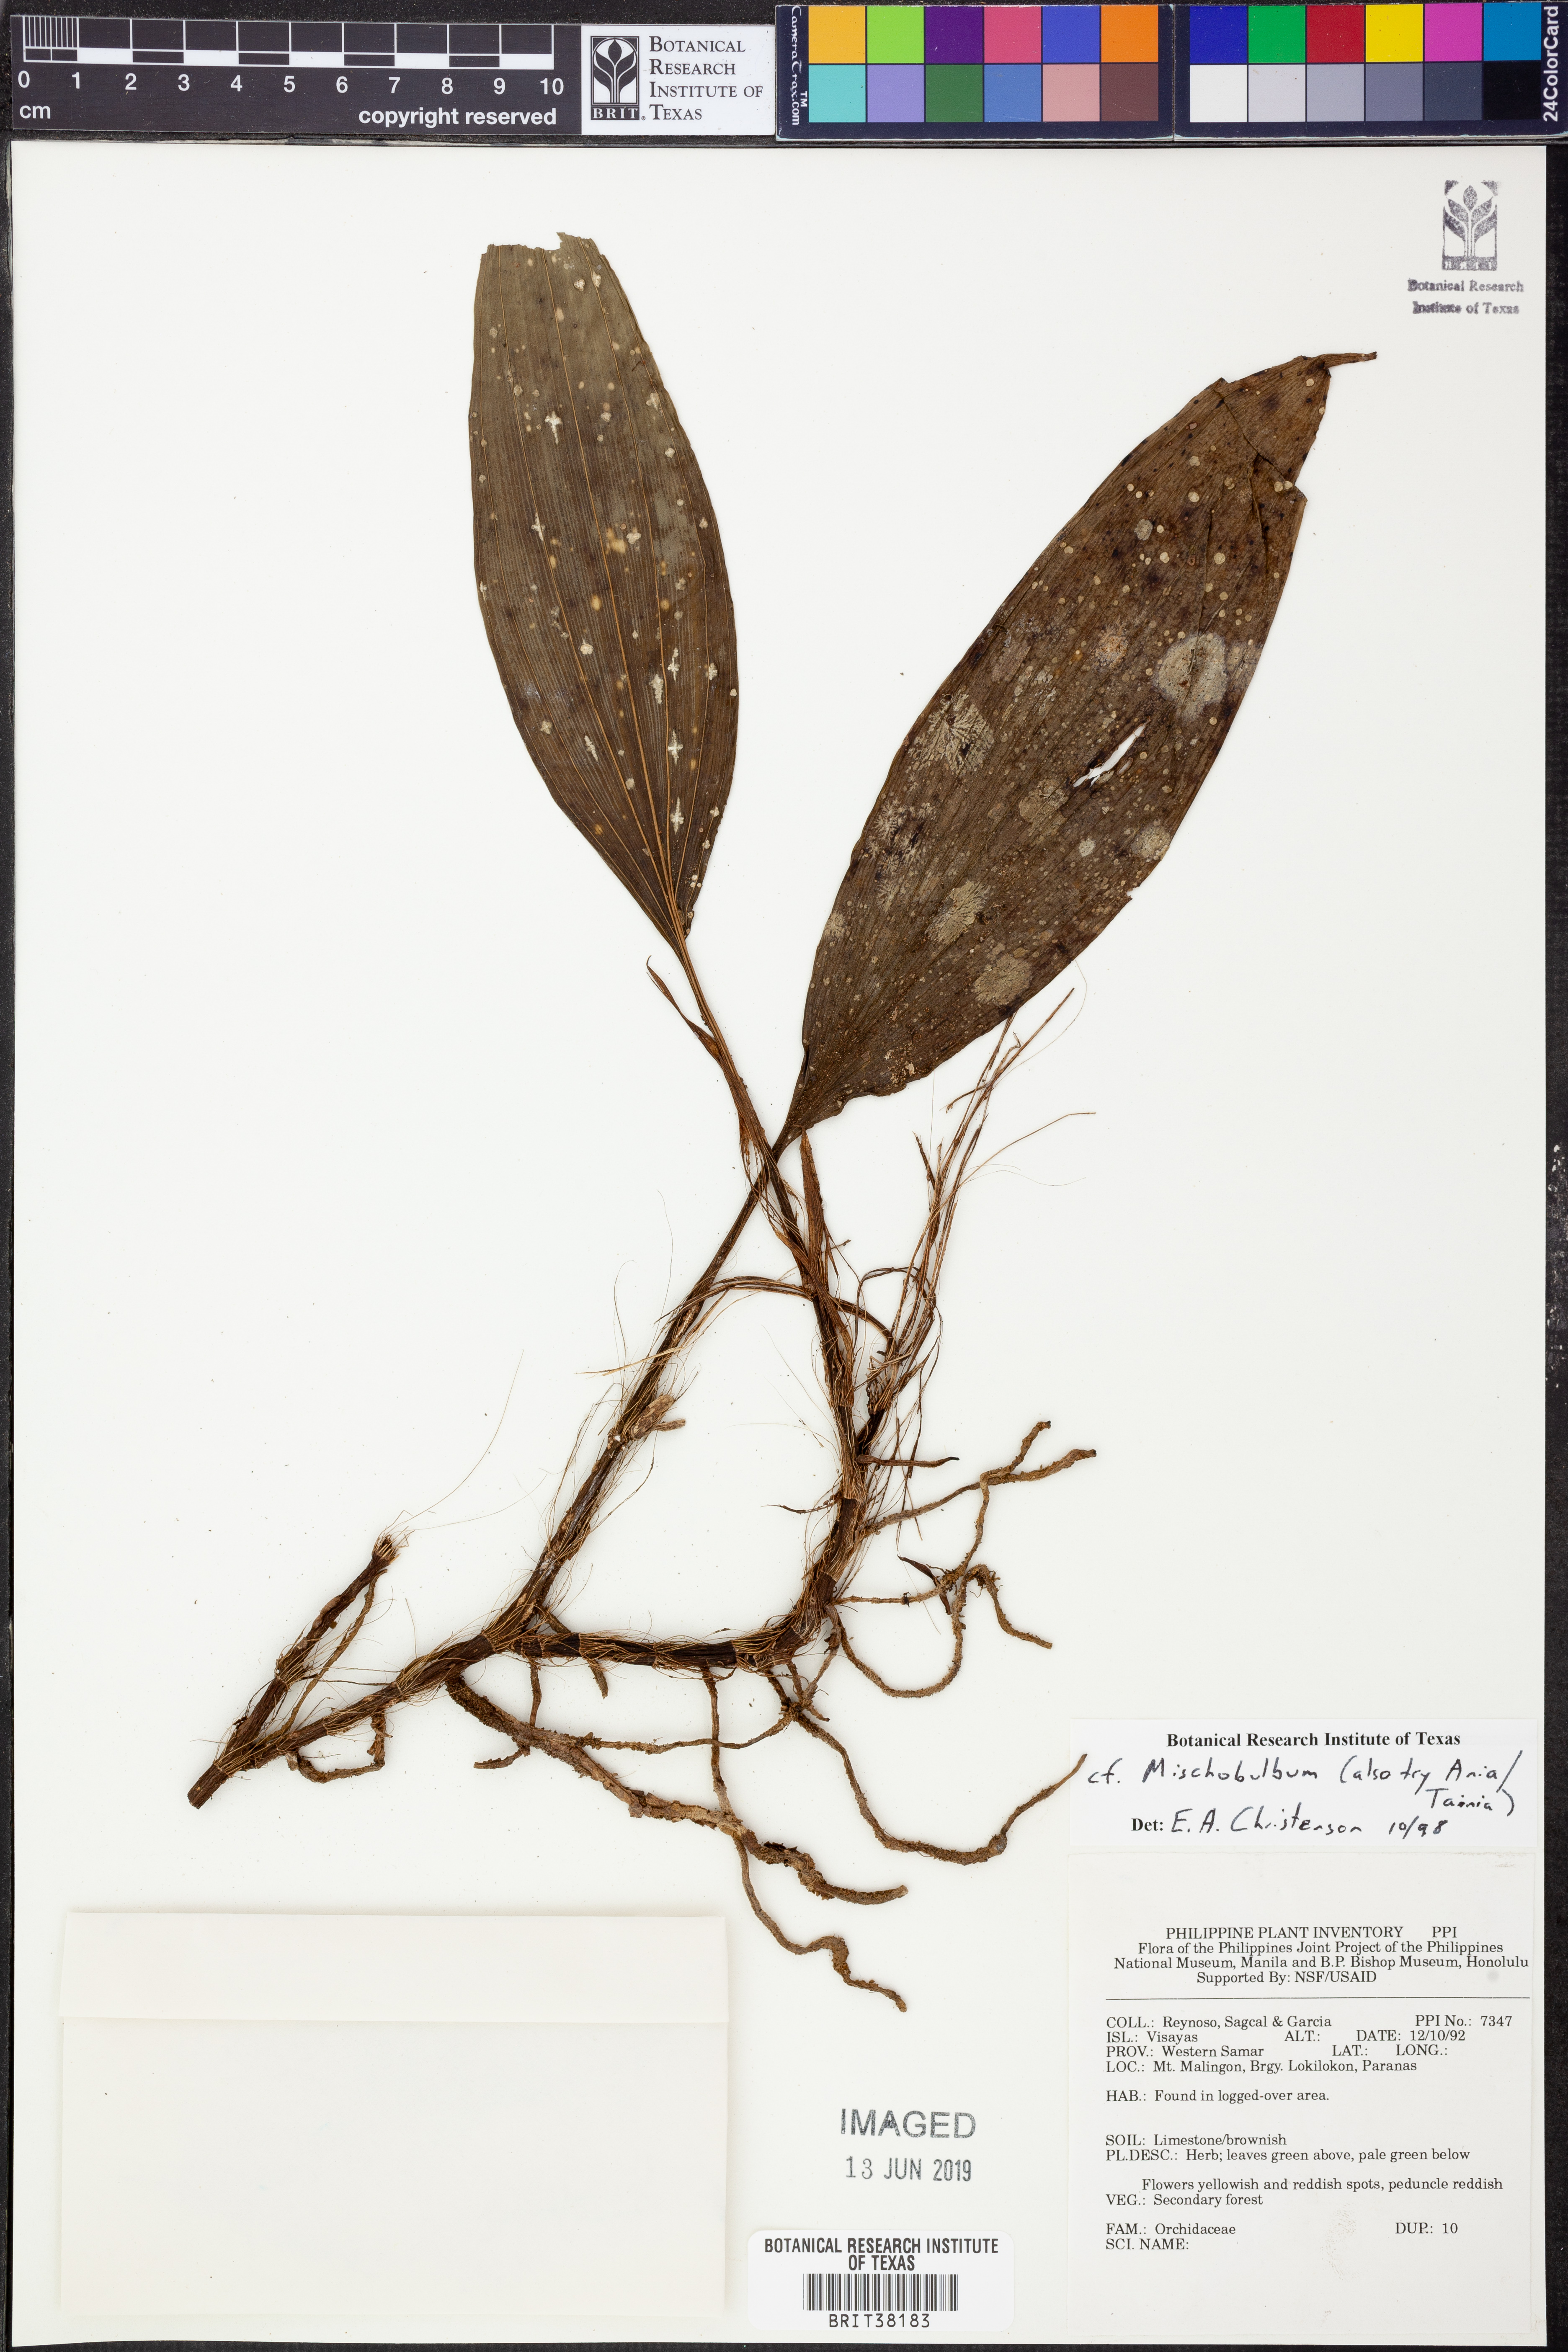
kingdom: Plantae
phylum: Tracheophyta
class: Liliopsida
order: Asparagales
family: Orchidaceae
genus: Tainia
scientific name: Tainia
